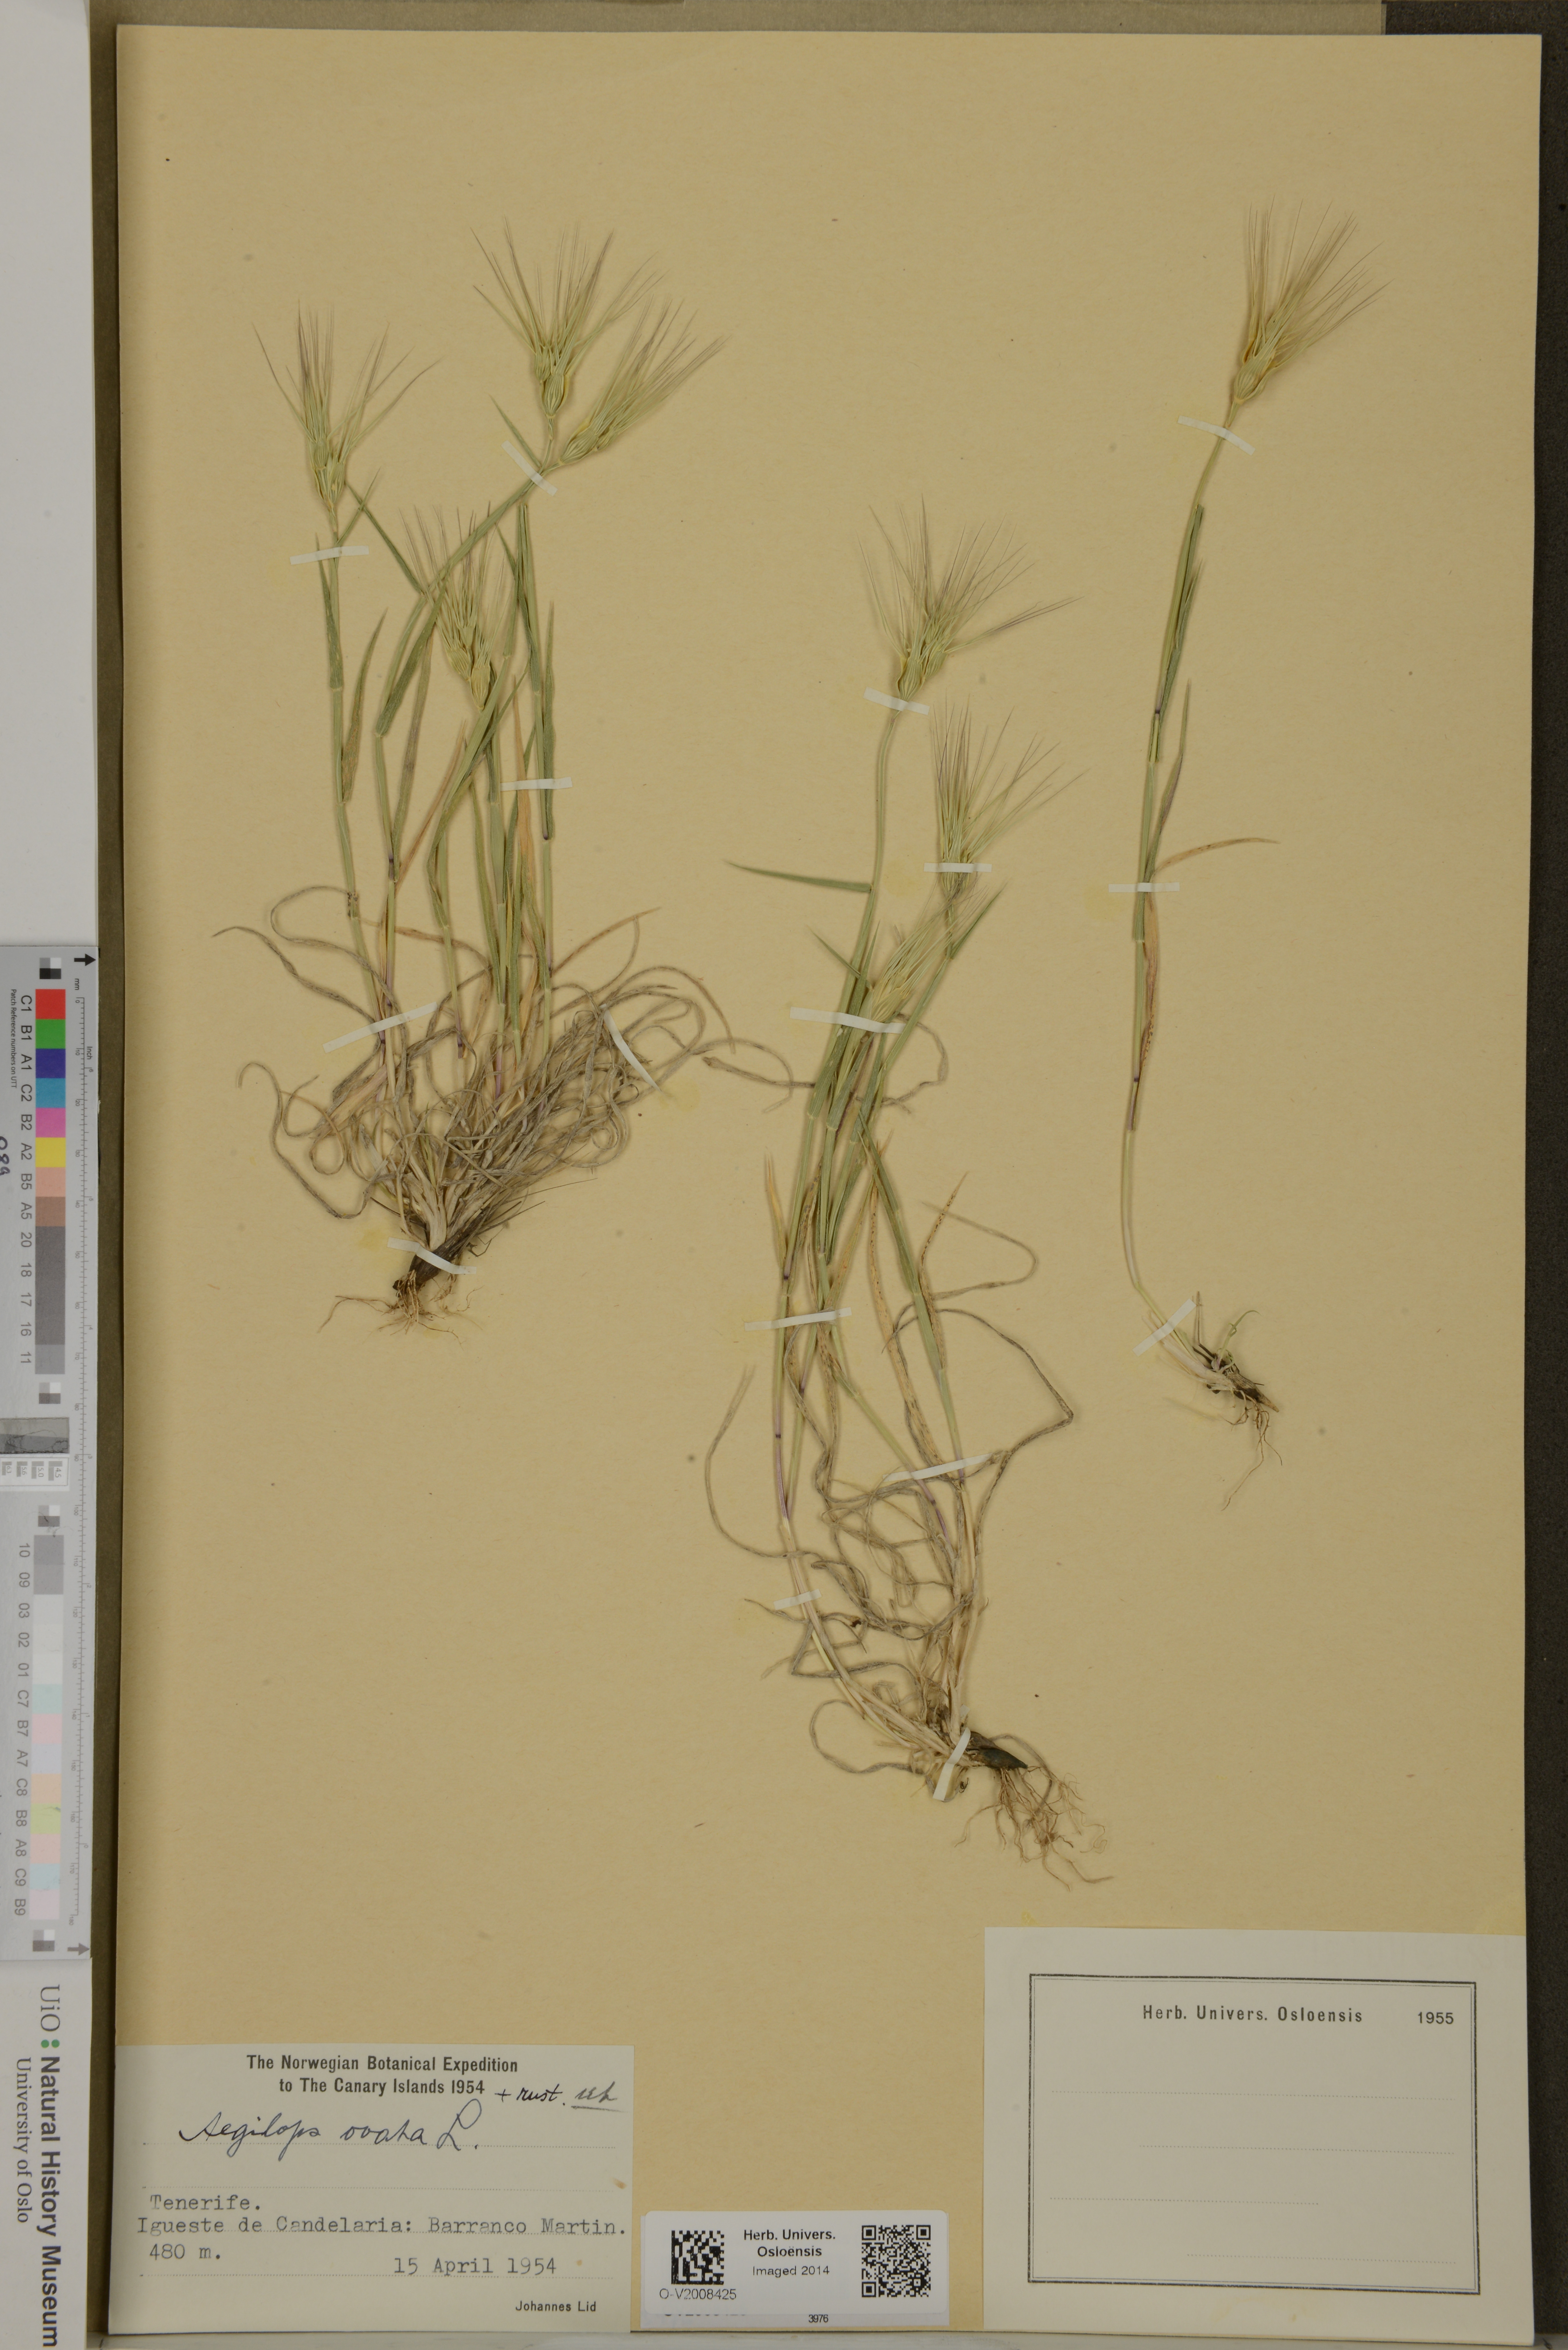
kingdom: Plantae
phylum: Tracheophyta
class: Liliopsida
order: Poales
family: Poaceae
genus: Aegilops
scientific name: Aegilops neglecta
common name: Three-awn goat grass
